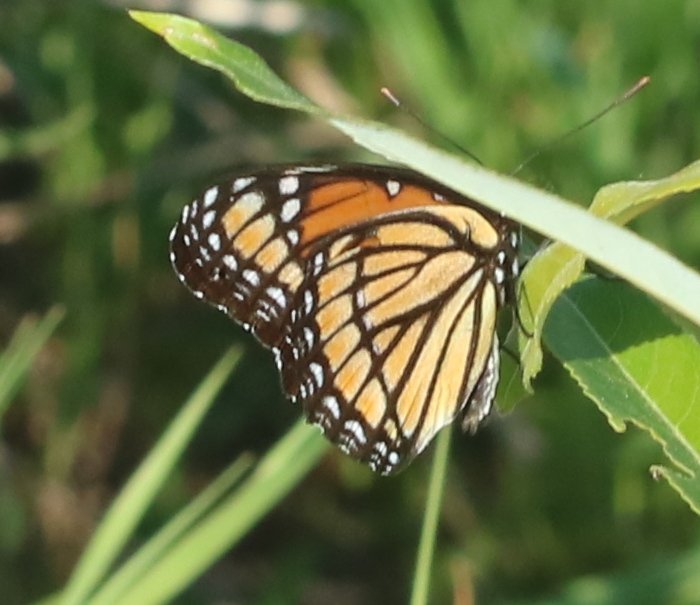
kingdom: Animalia
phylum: Arthropoda
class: Insecta
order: Lepidoptera
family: Nymphalidae
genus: Limenitis
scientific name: Limenitis archippus
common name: Viceroy
